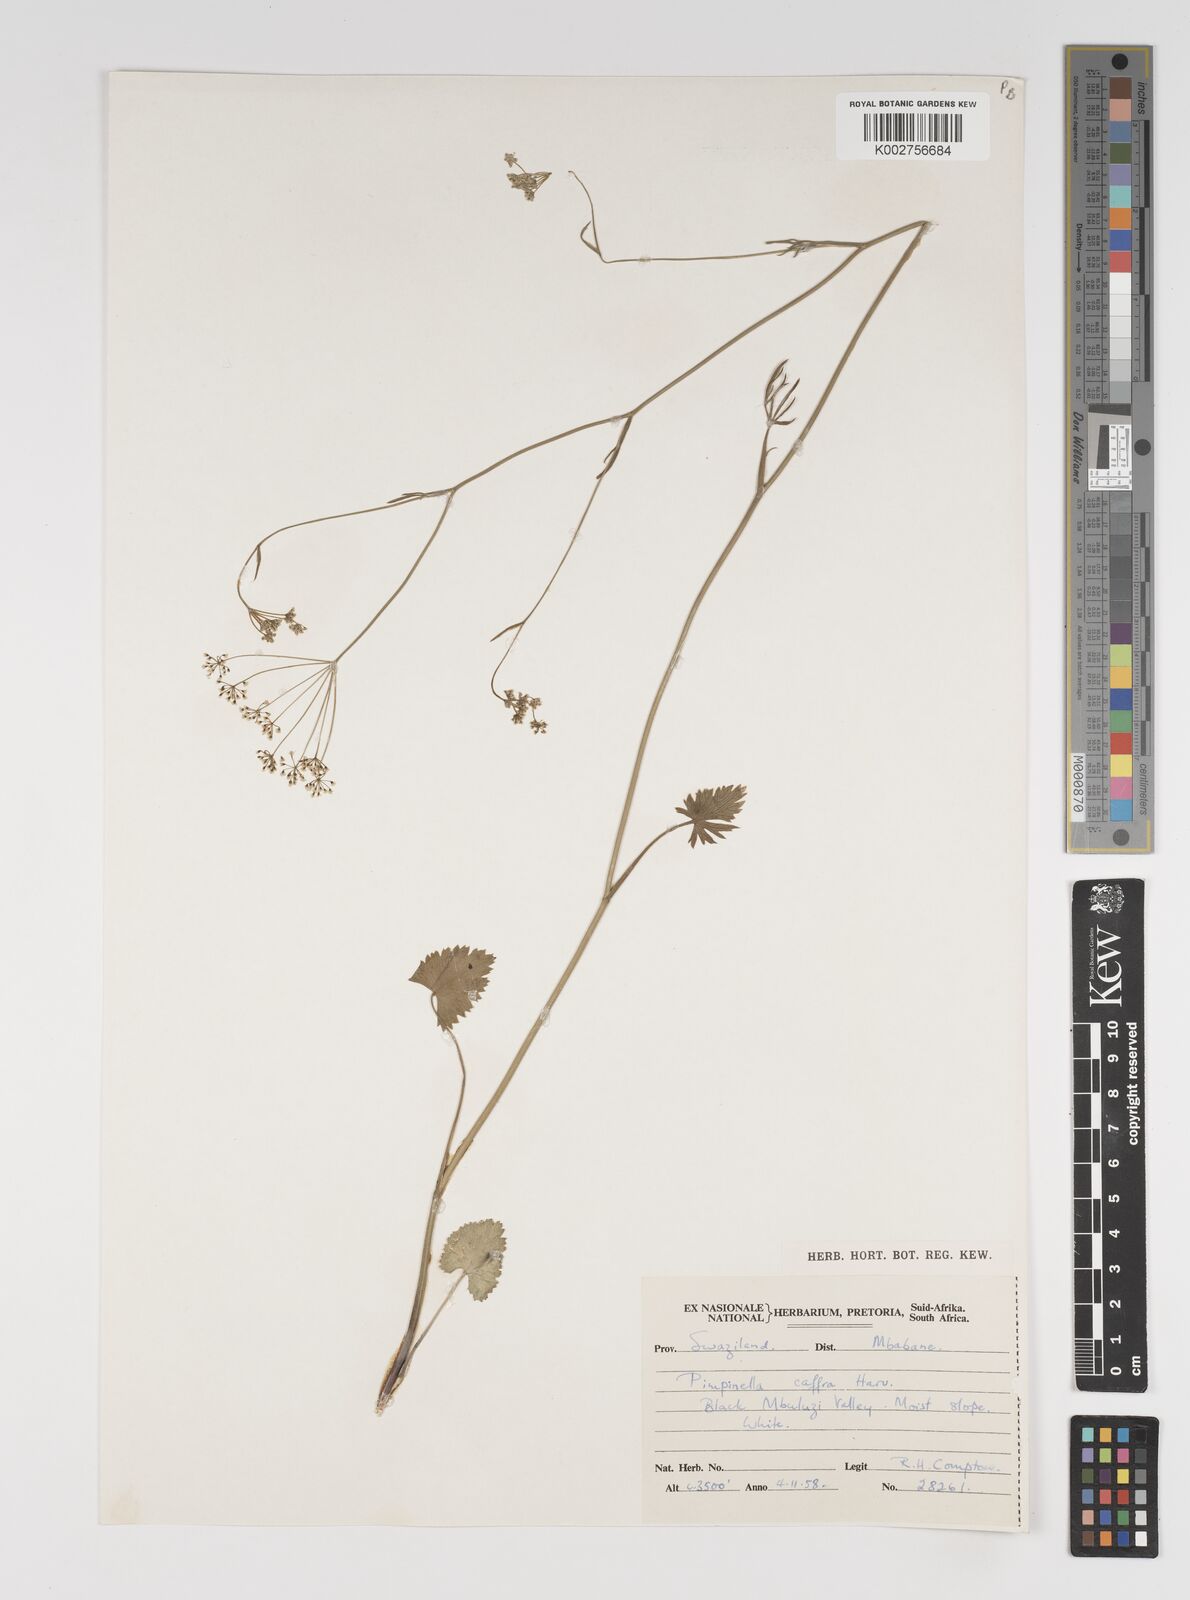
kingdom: Plantae
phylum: Tracheophyta
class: Magnoliopsida
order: Apiales
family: Apiaceae
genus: Pimpinella
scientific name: Pimpinella
